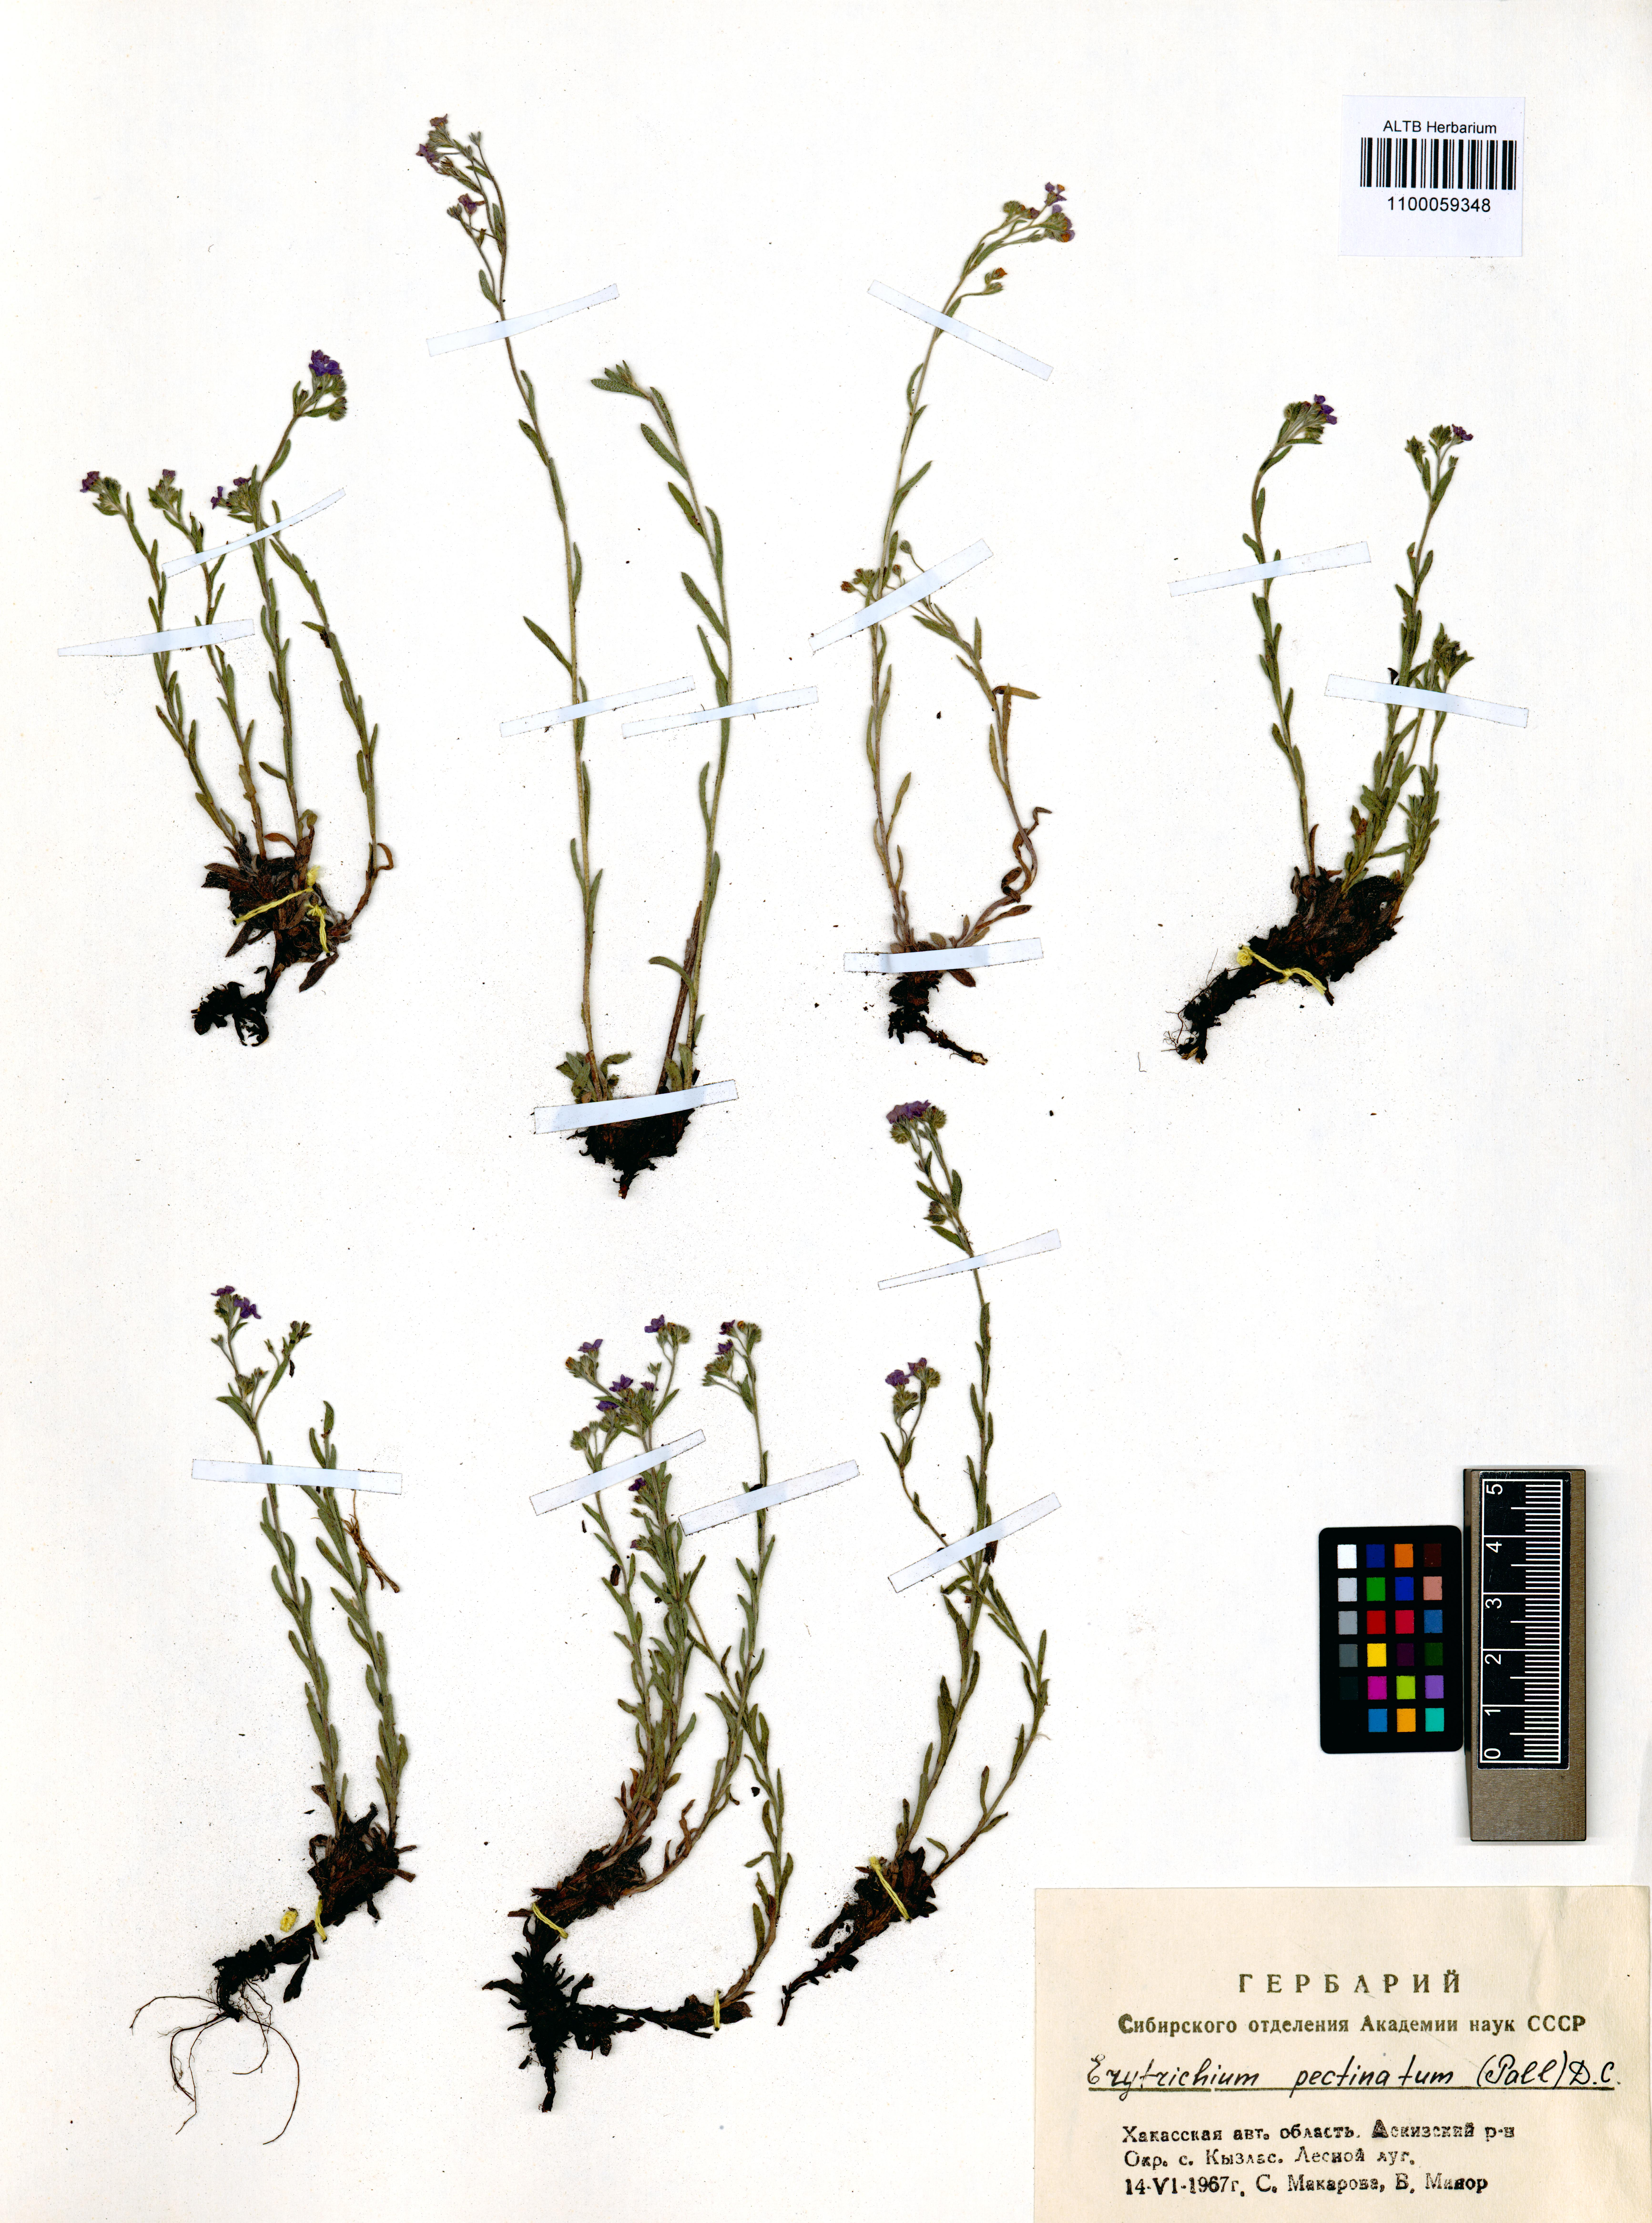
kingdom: Plantae
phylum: Tracheophyta
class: Magnoliopsida
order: Boraginales
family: Boraginaceae
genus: Eritrichium
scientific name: Eritrichium pectinatum
